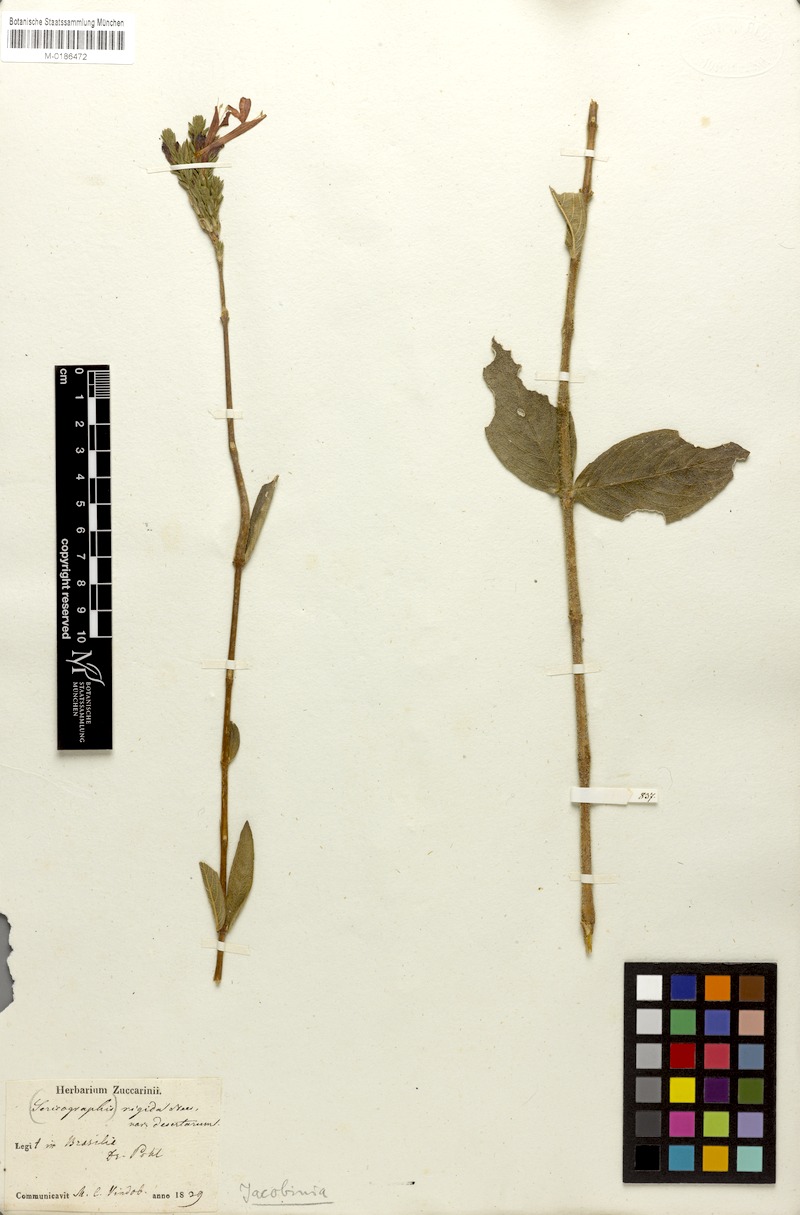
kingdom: Plantae
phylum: Tracheophyta
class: Magnoliopsida
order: Lamiales
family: Acanthaceae
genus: Dianthera
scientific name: Dianthera rigida
